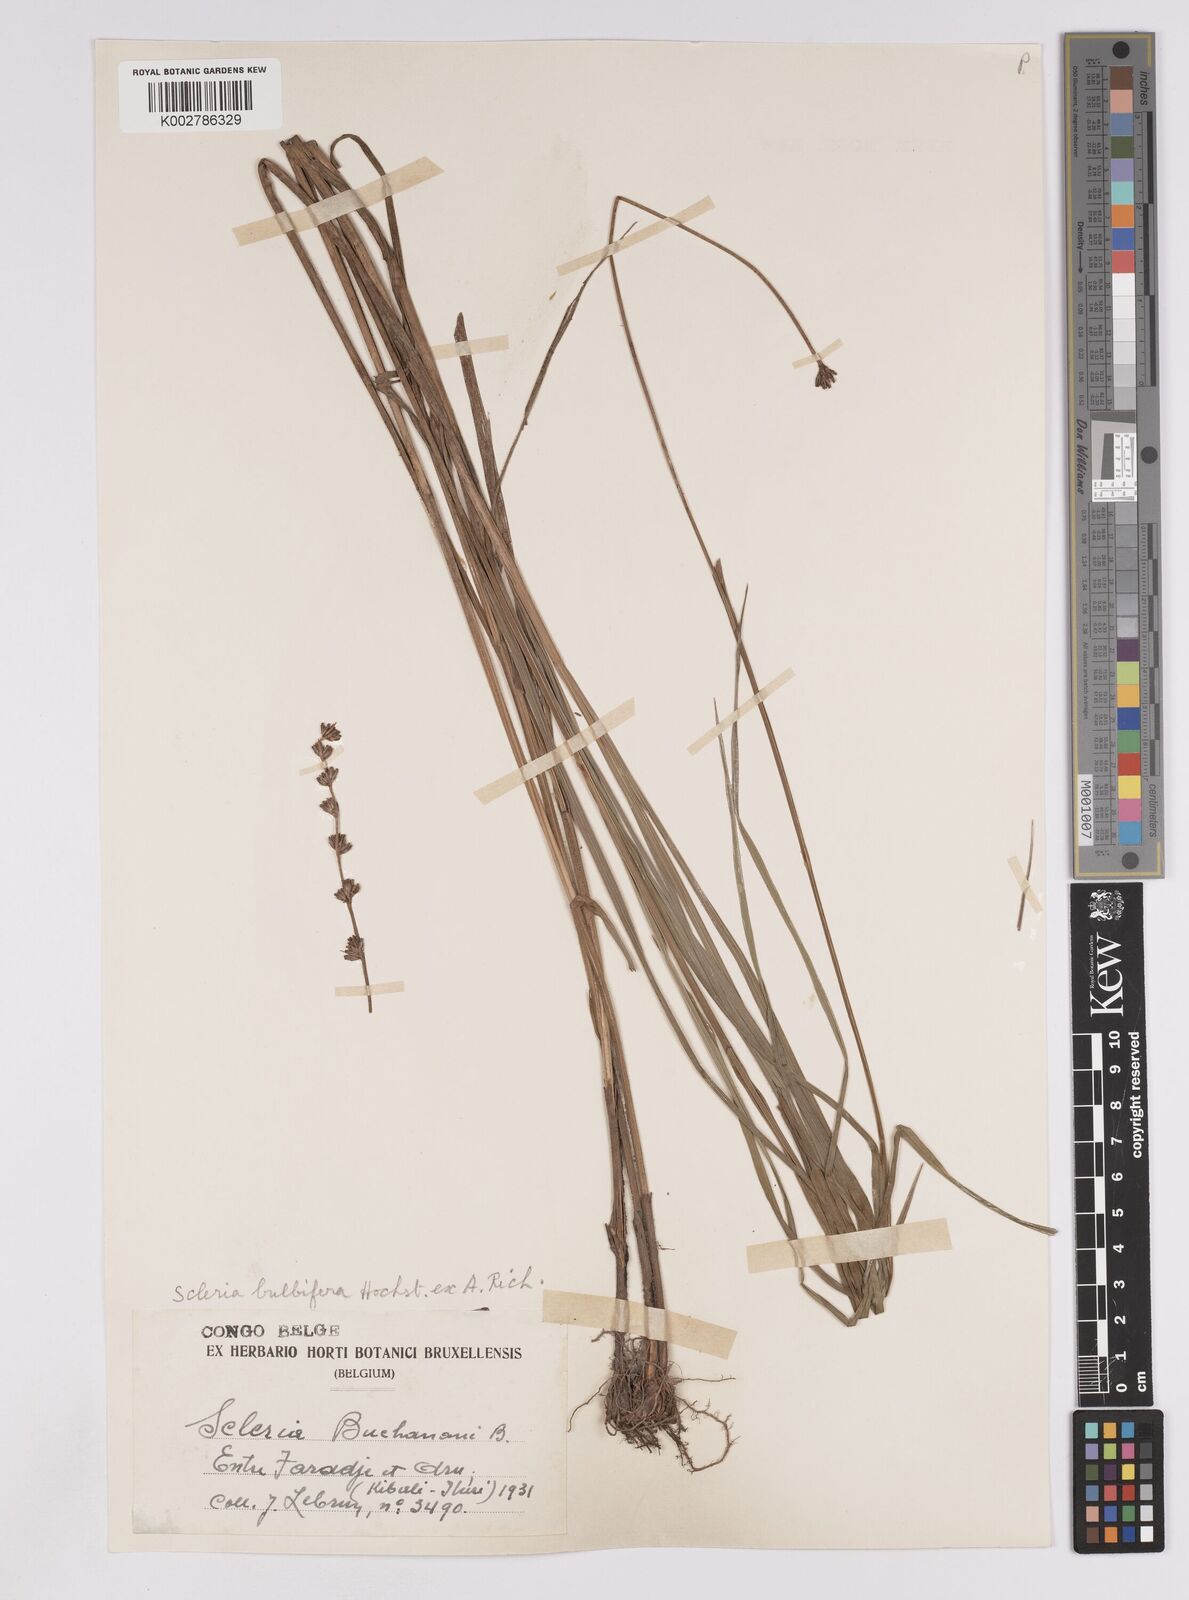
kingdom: Plantae
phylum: Tracheophyta
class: Liliopsida
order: Poales
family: Cyperaceae
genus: Scleria
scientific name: Scleria bulbifera
